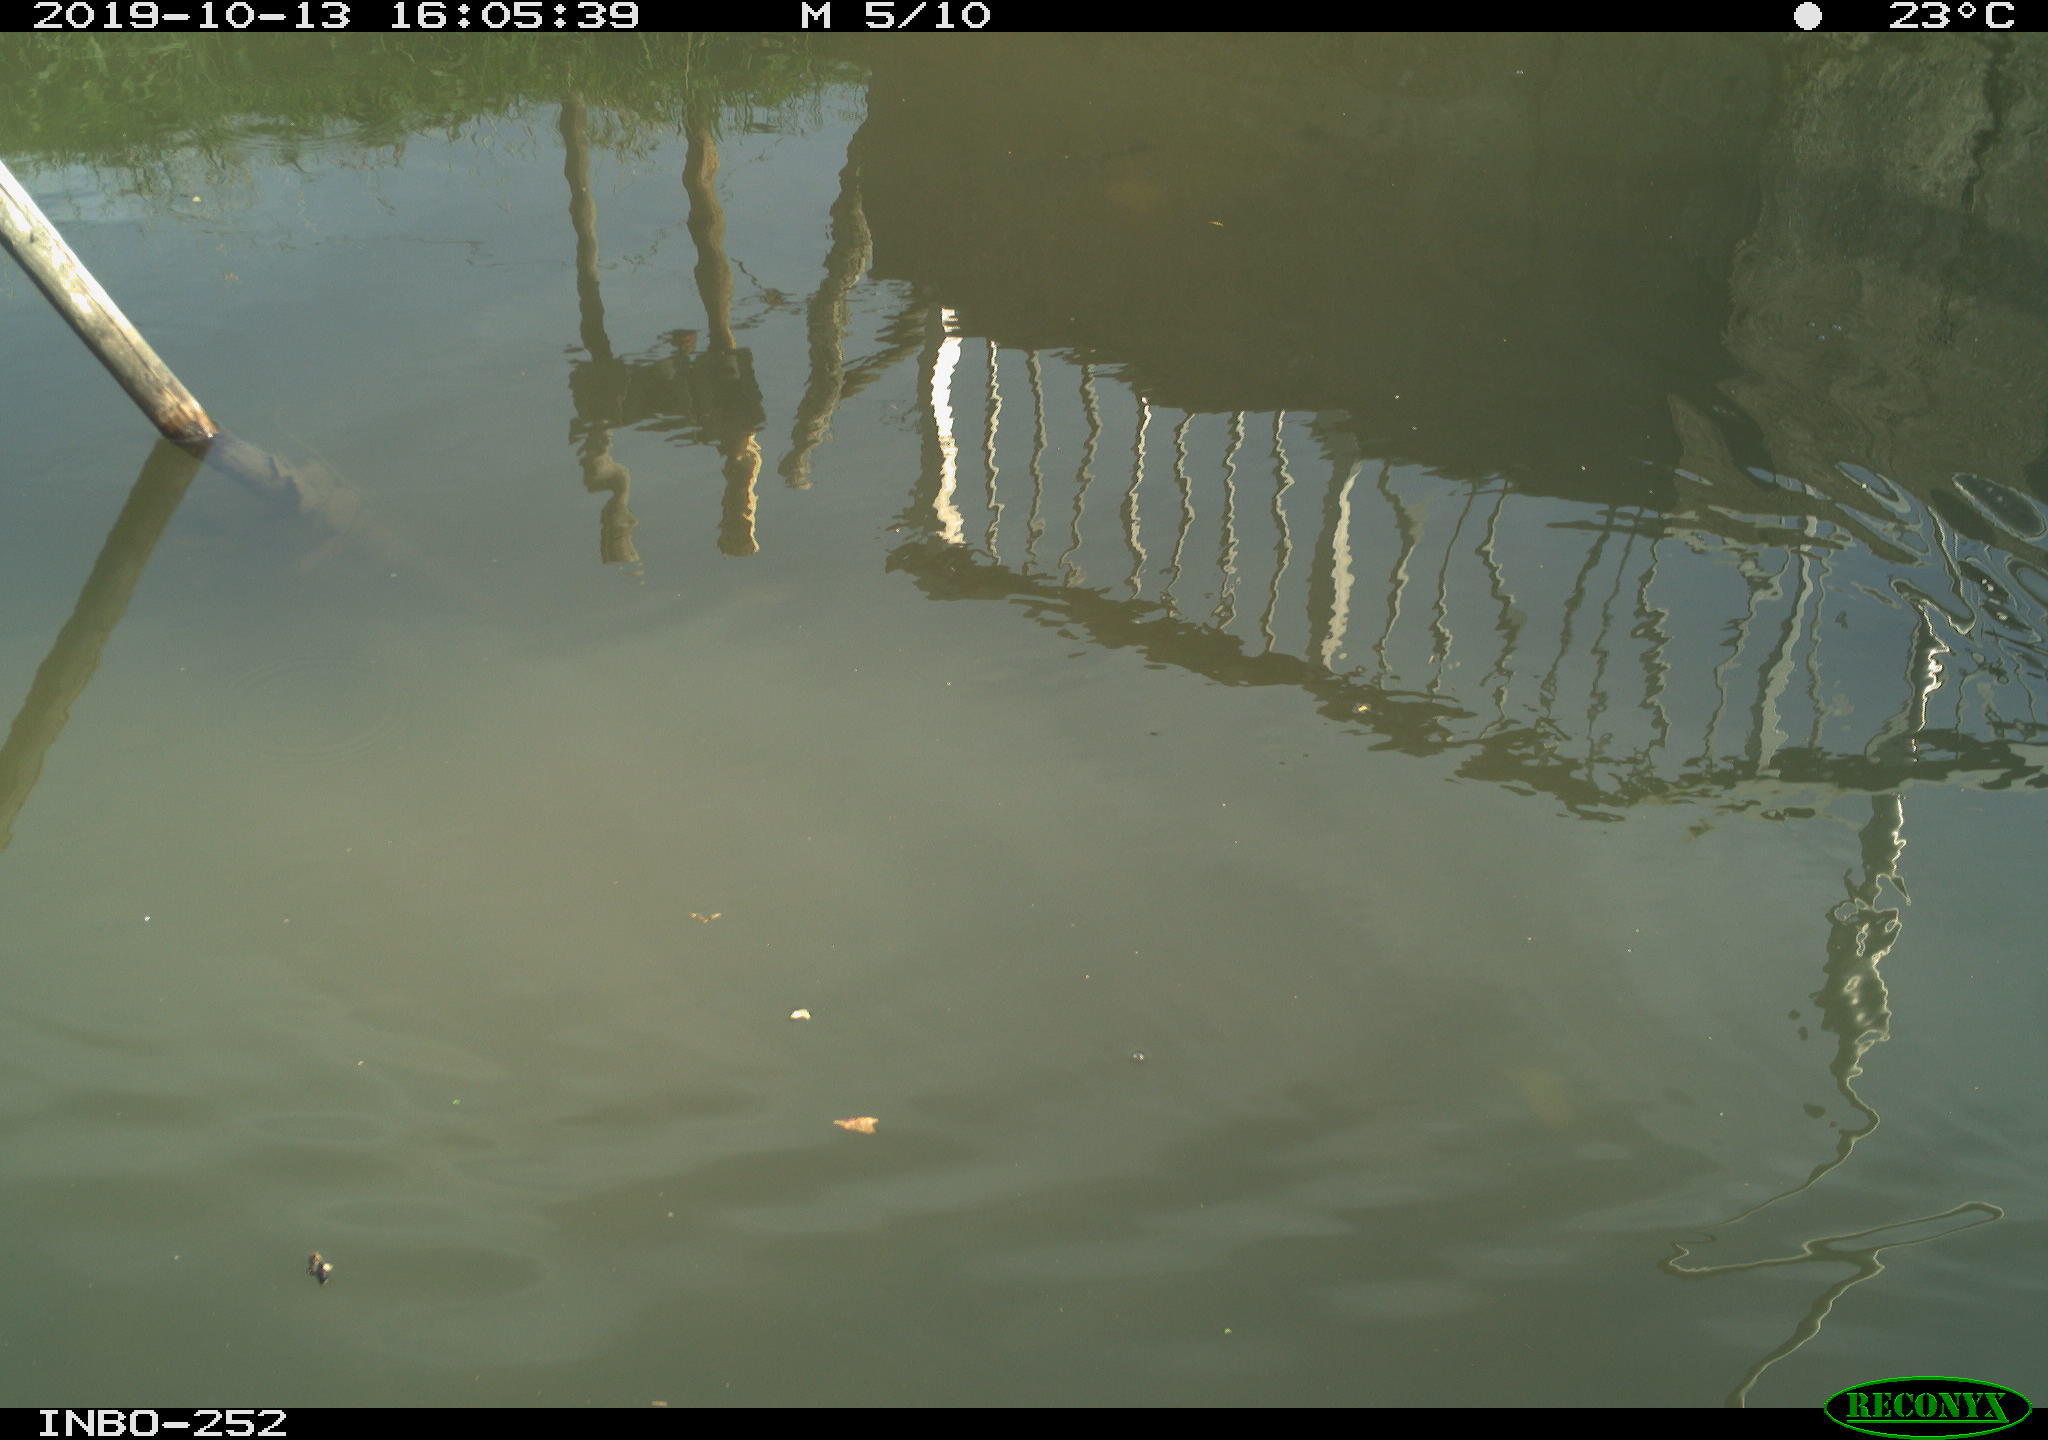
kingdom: Animalia
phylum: Chordata
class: Aves
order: Gruiformes
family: Rallidae
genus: Gallinula
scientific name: Gallinula chloropus
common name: Common moorhen
